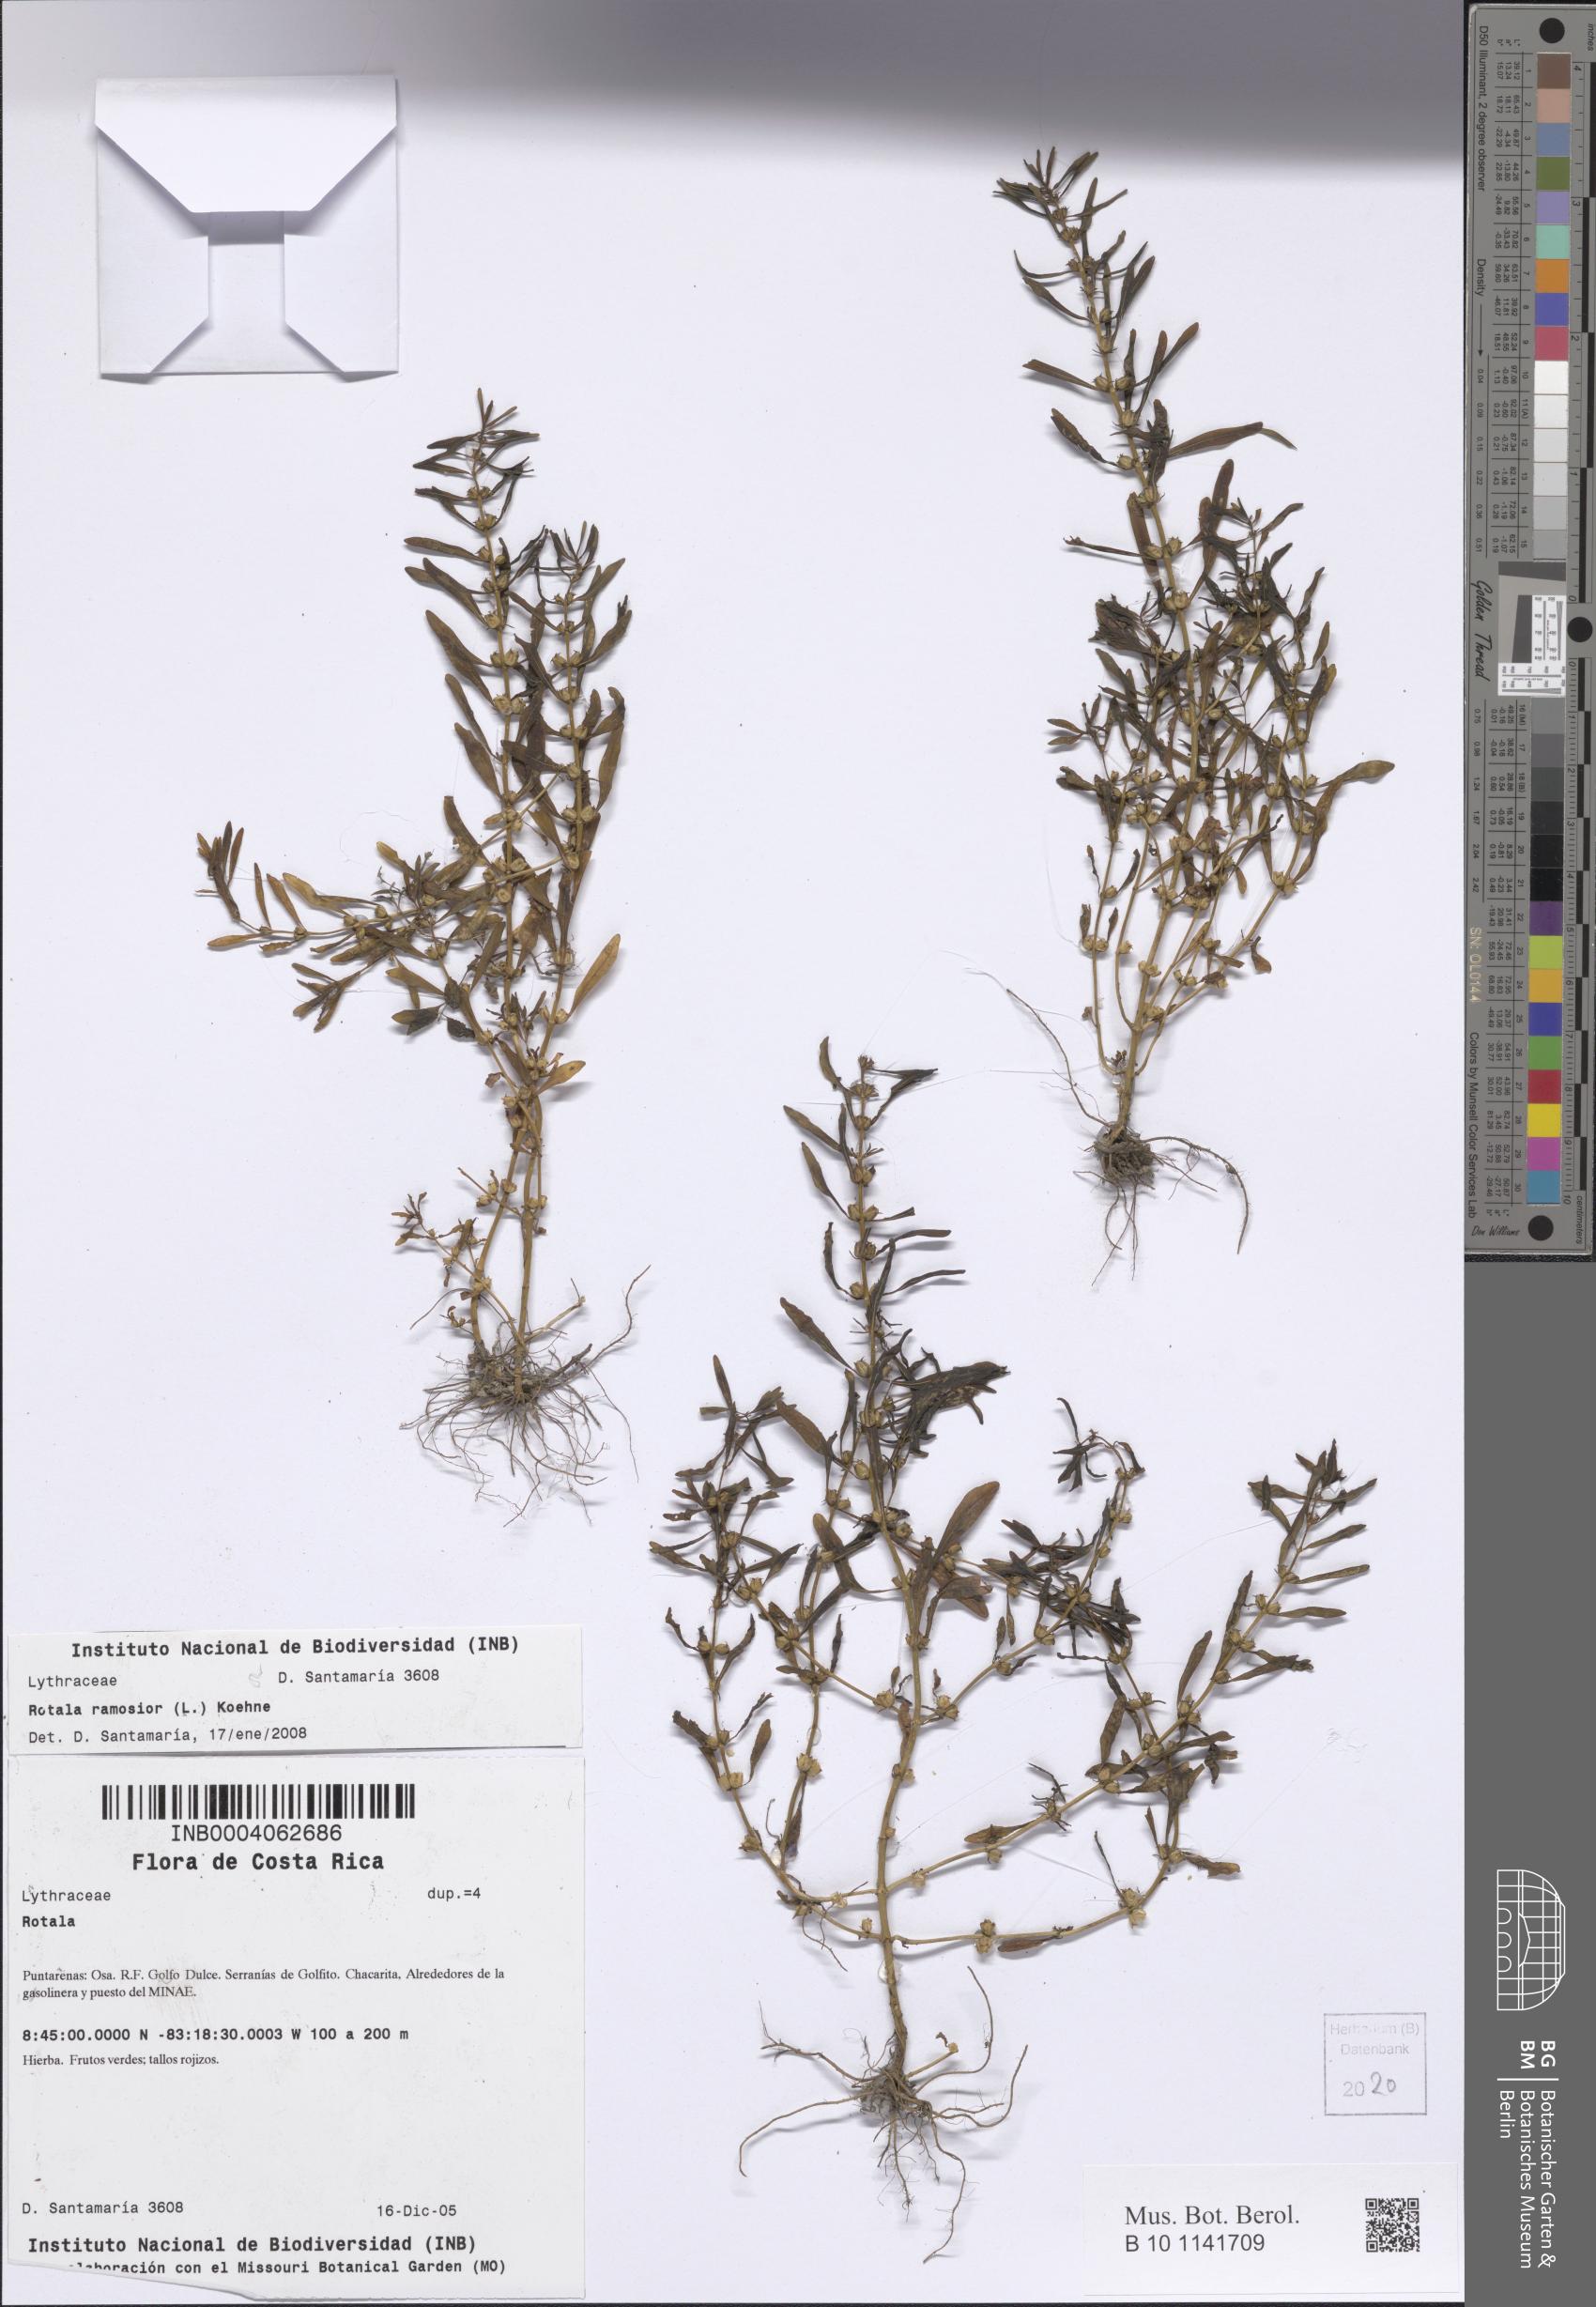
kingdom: Plantae
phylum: Tracheophyta
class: Magnoliopsida
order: Myrtales
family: Lythraceae
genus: Rotala
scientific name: Rotala ramosior
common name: Lowland rotala
